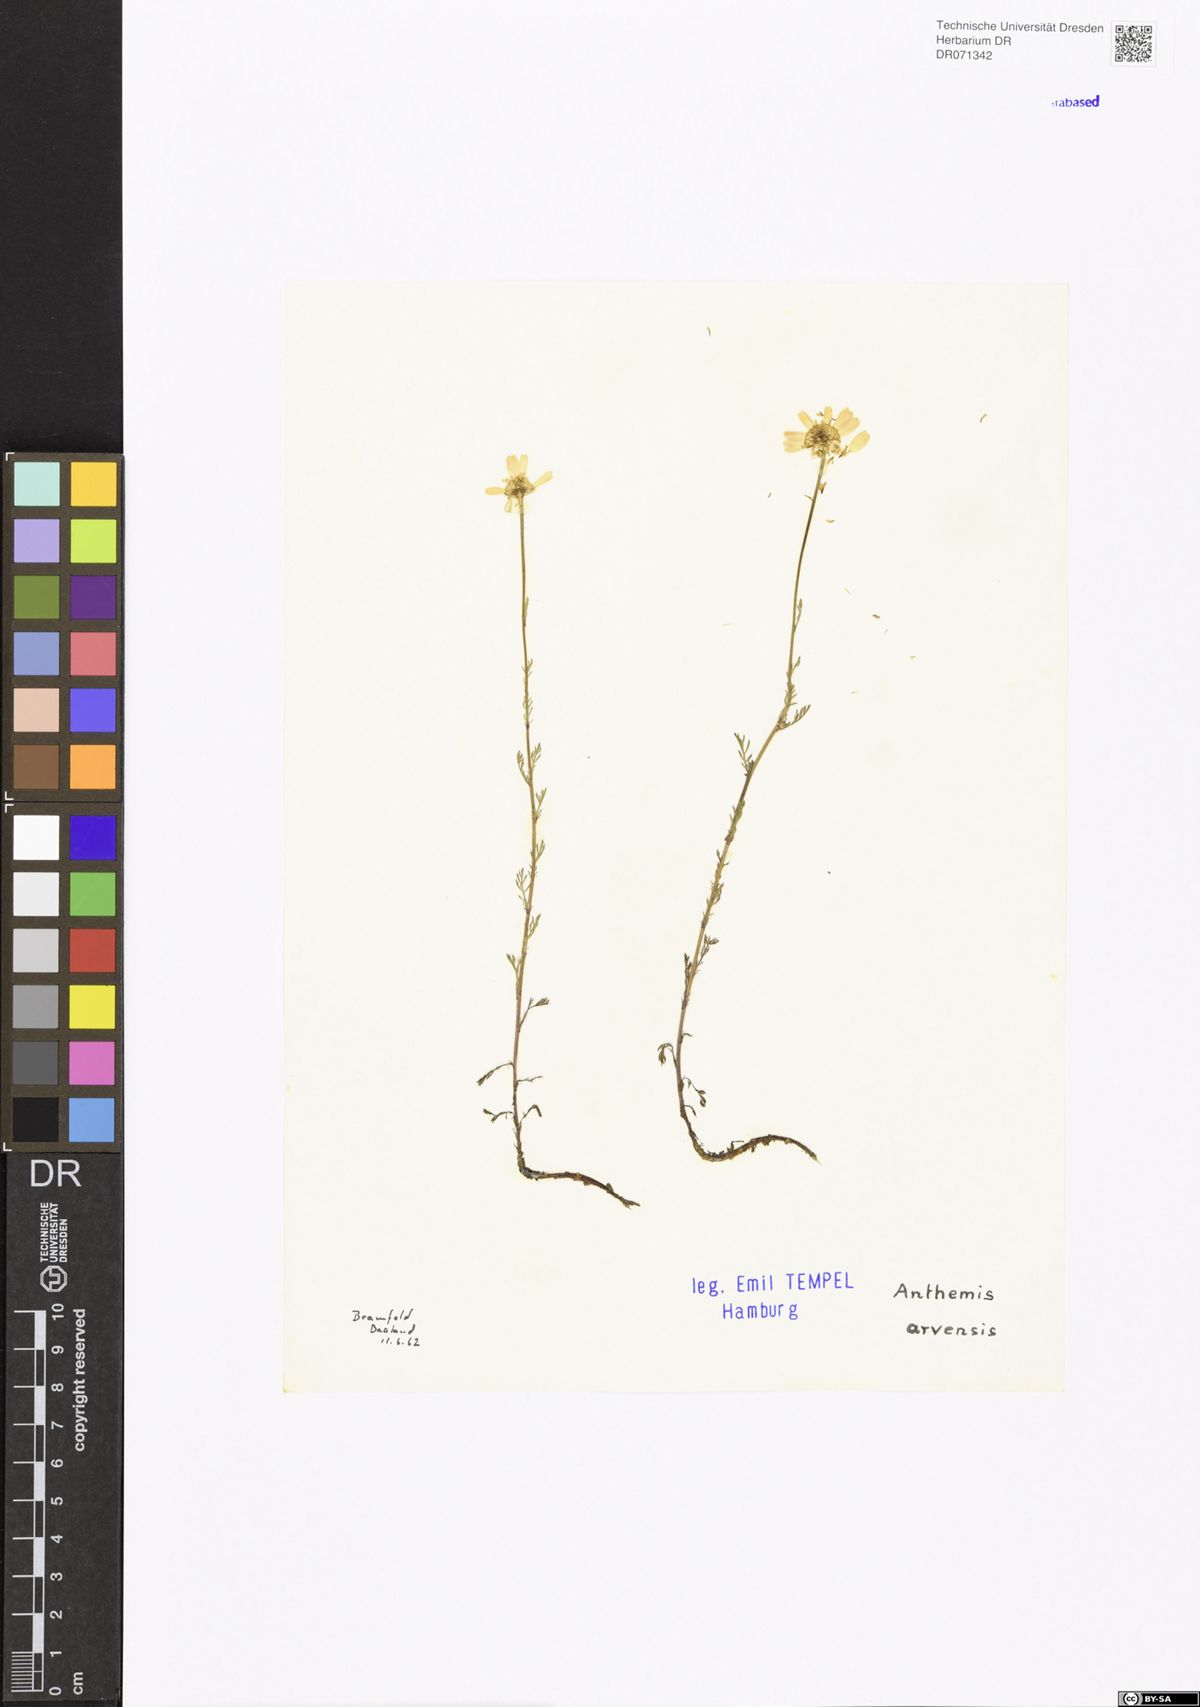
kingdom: Plantae
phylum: Tracheophyta
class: Magnoliopsida
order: Asterales
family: Asteraceae
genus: Anthemis
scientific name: Anthemis arvensis
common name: Corn chamomile
